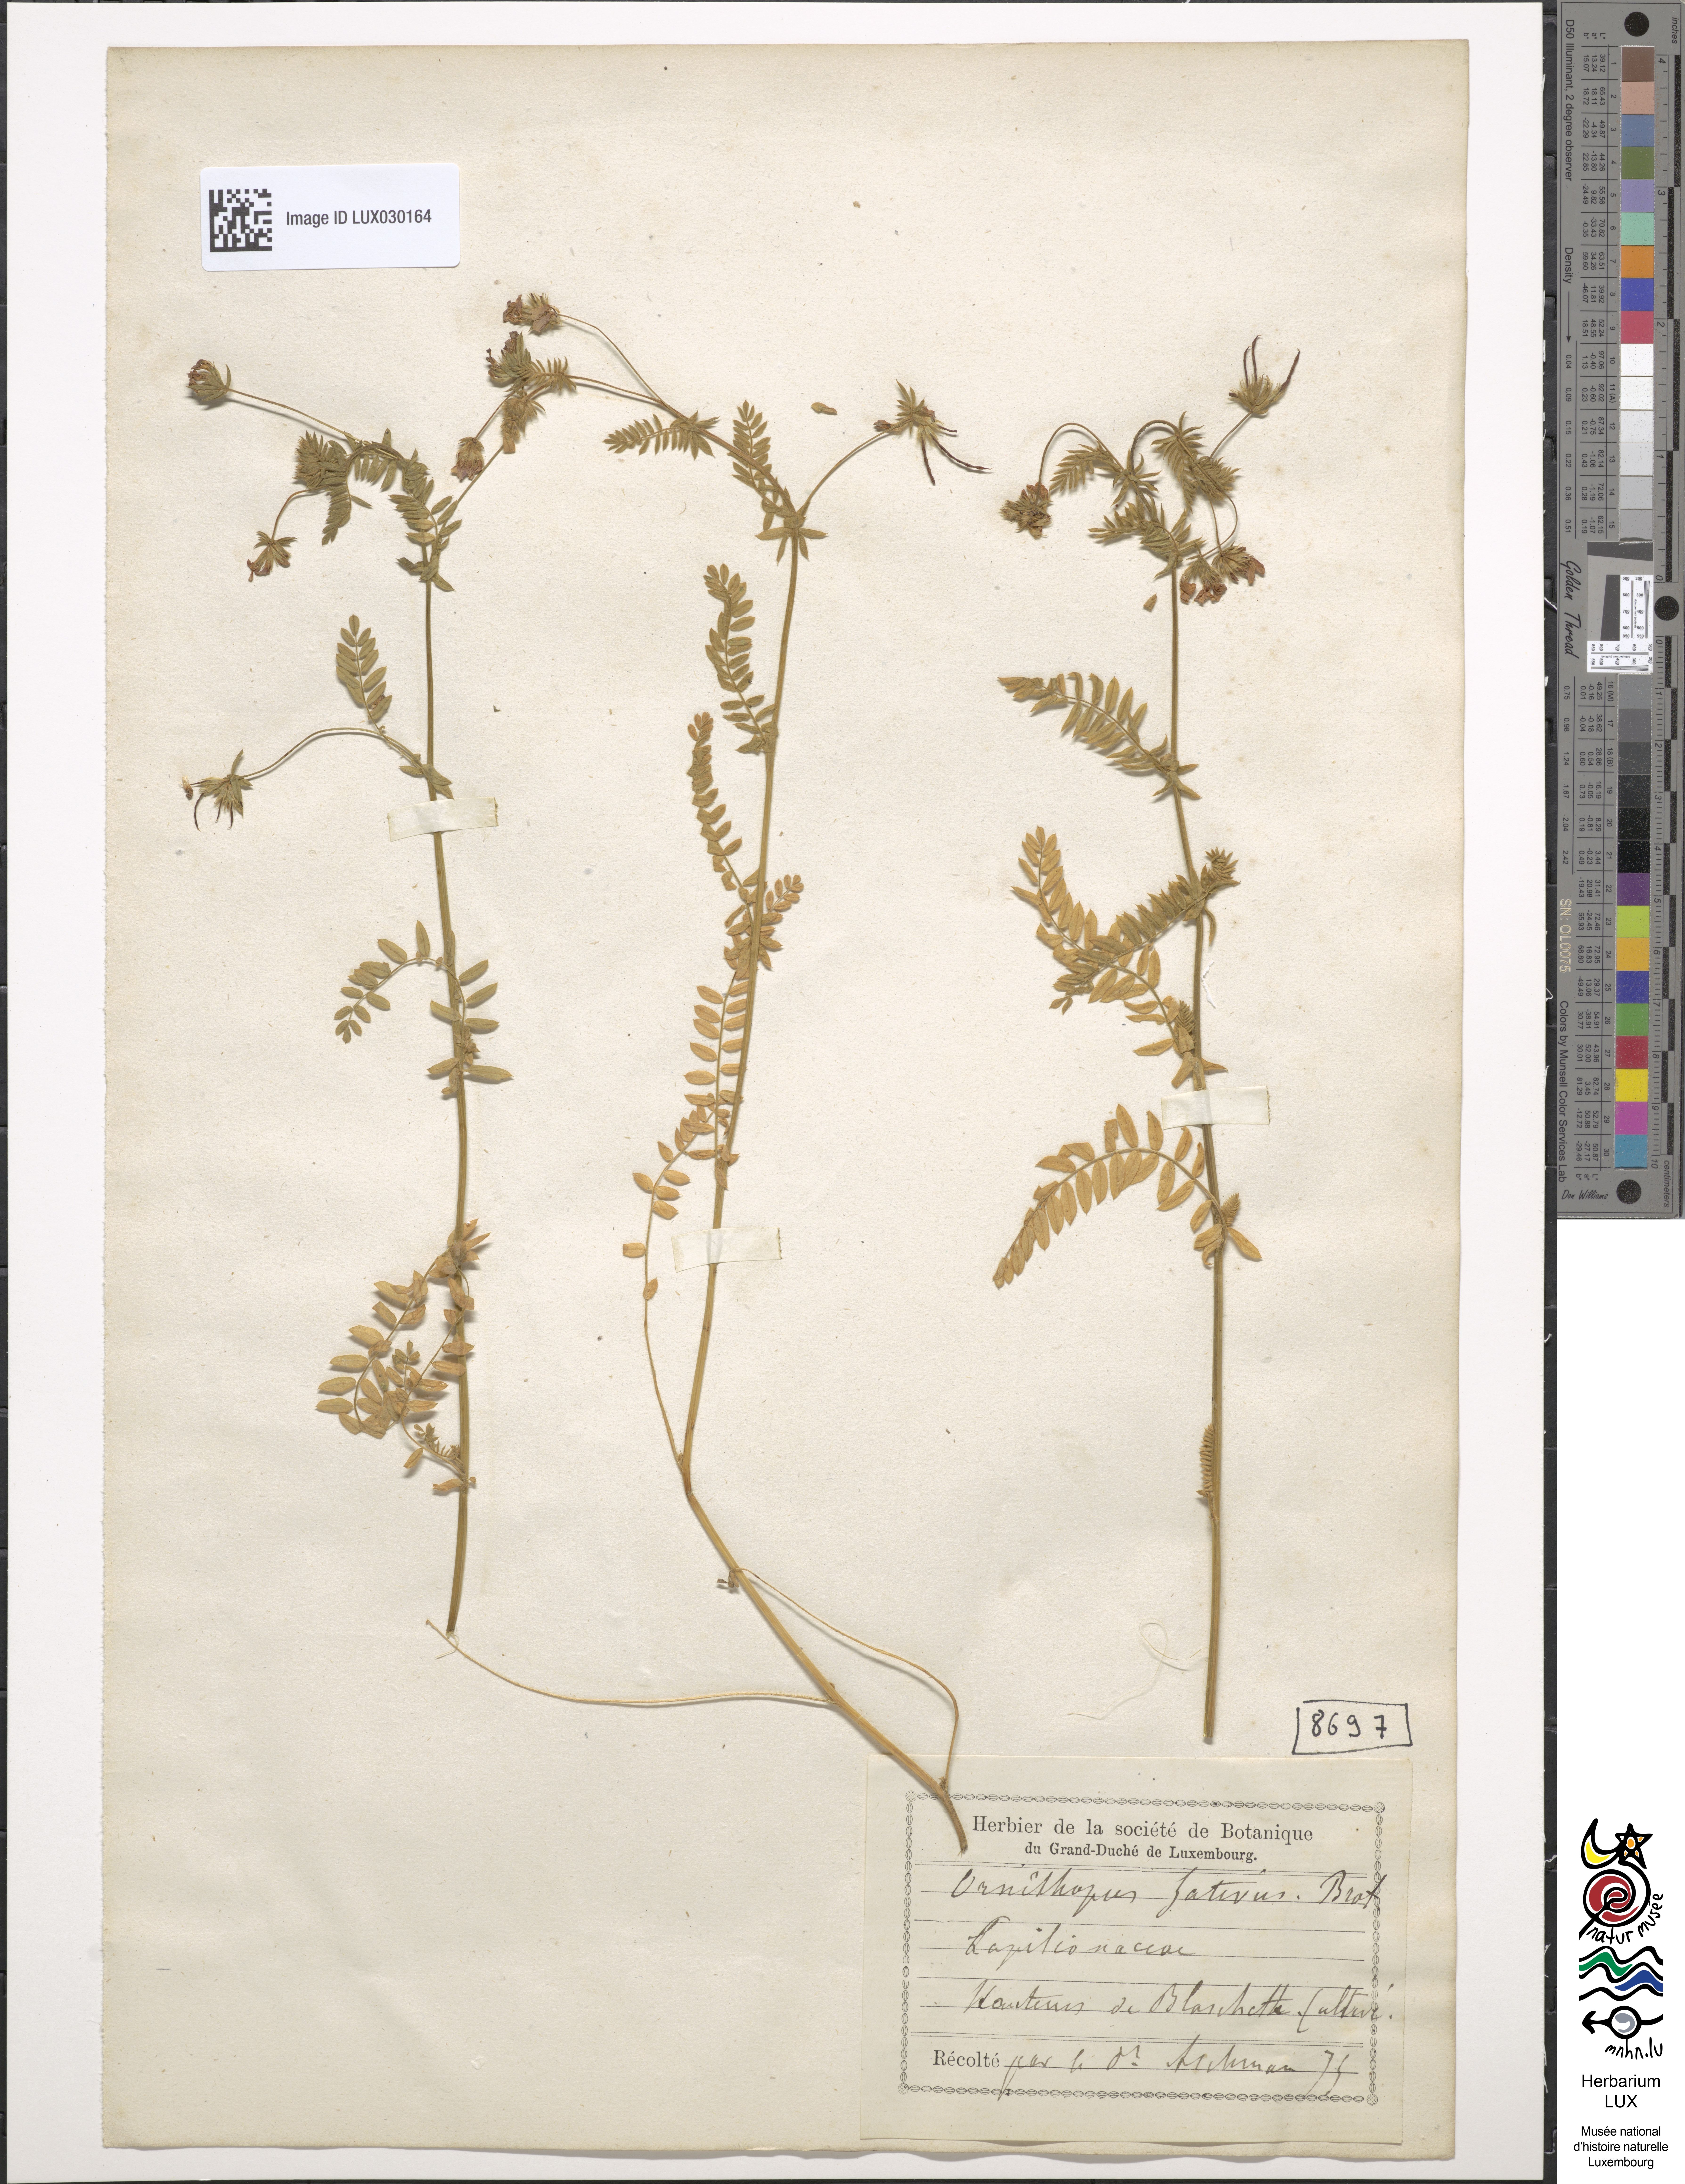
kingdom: Plantae
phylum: Tracheophyta
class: Magnoliopsida
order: Fabales
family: Fabaceae
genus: Ornithopus
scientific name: Ornithopus sativus
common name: Serradella
